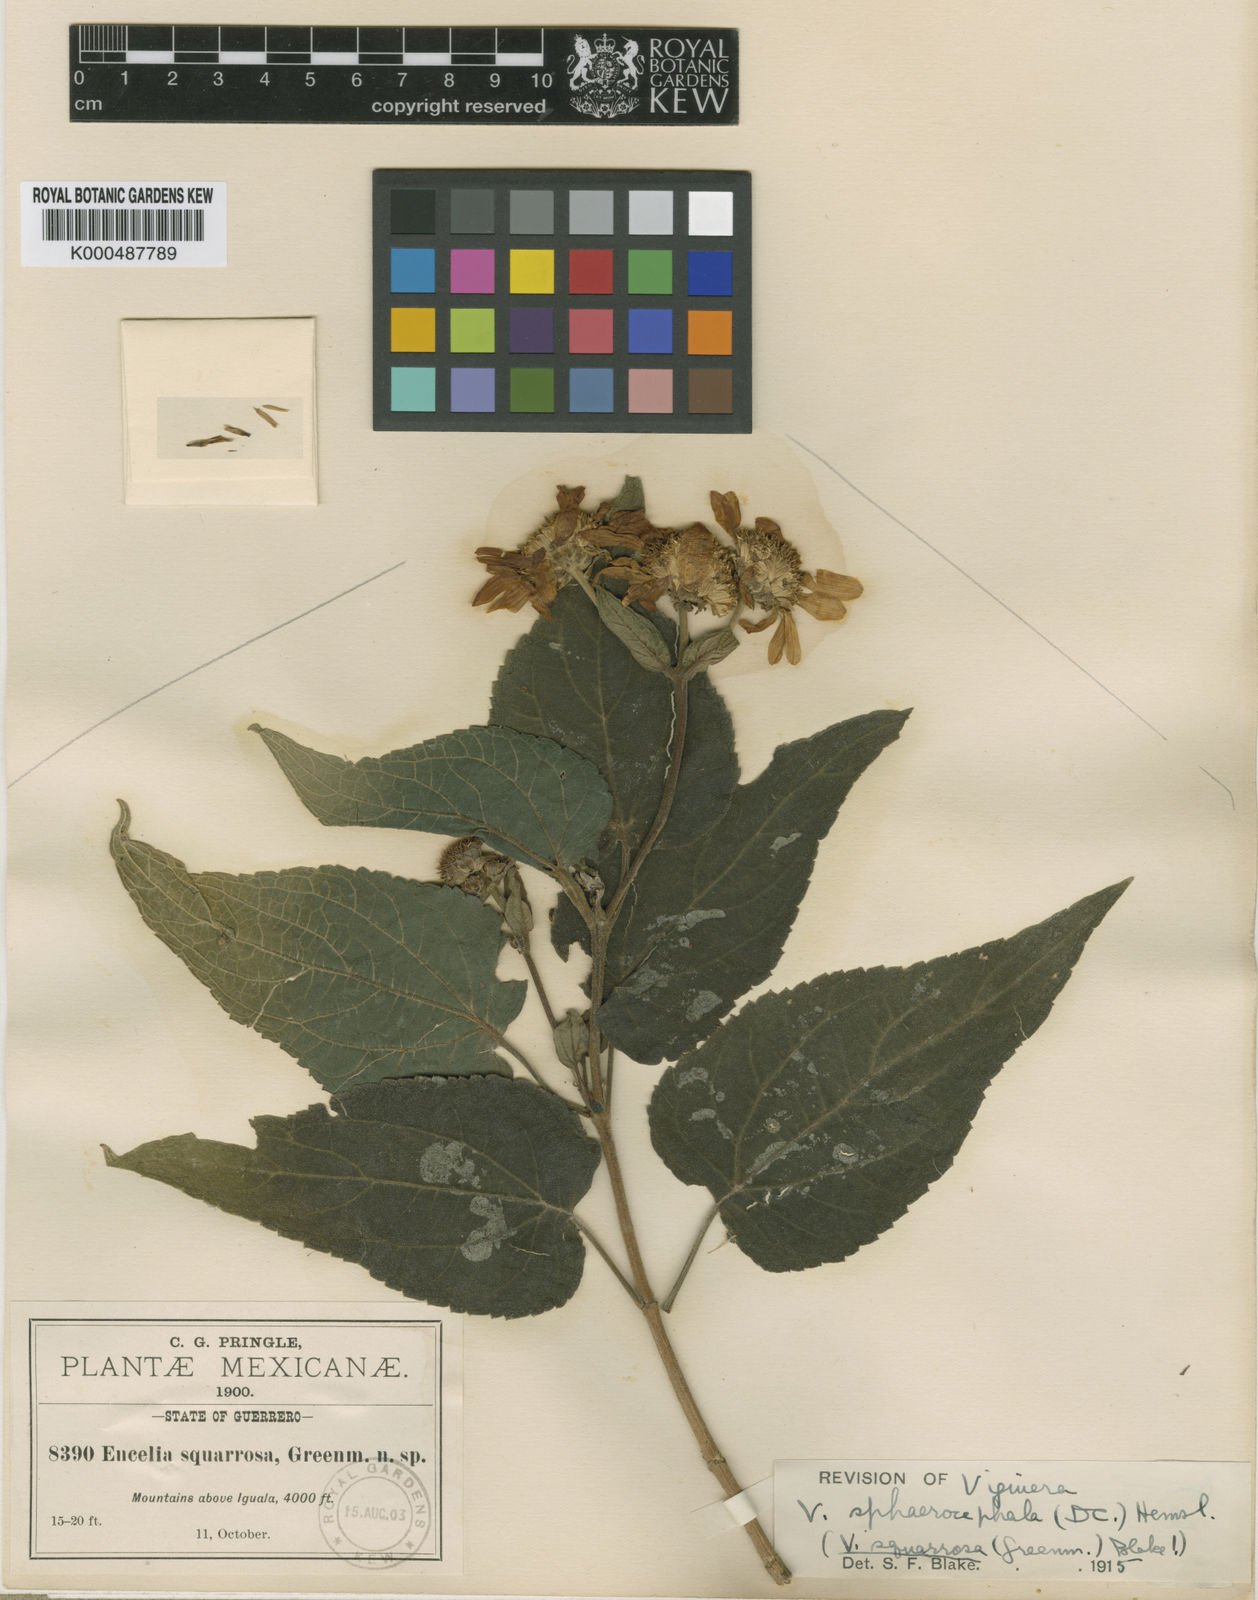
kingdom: Plantae
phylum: Tracheophyta
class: Magnoliopsida
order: Asterales
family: Asteraceae
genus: Dendroviguiera
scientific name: Dendroviguiera sphaerocephala
